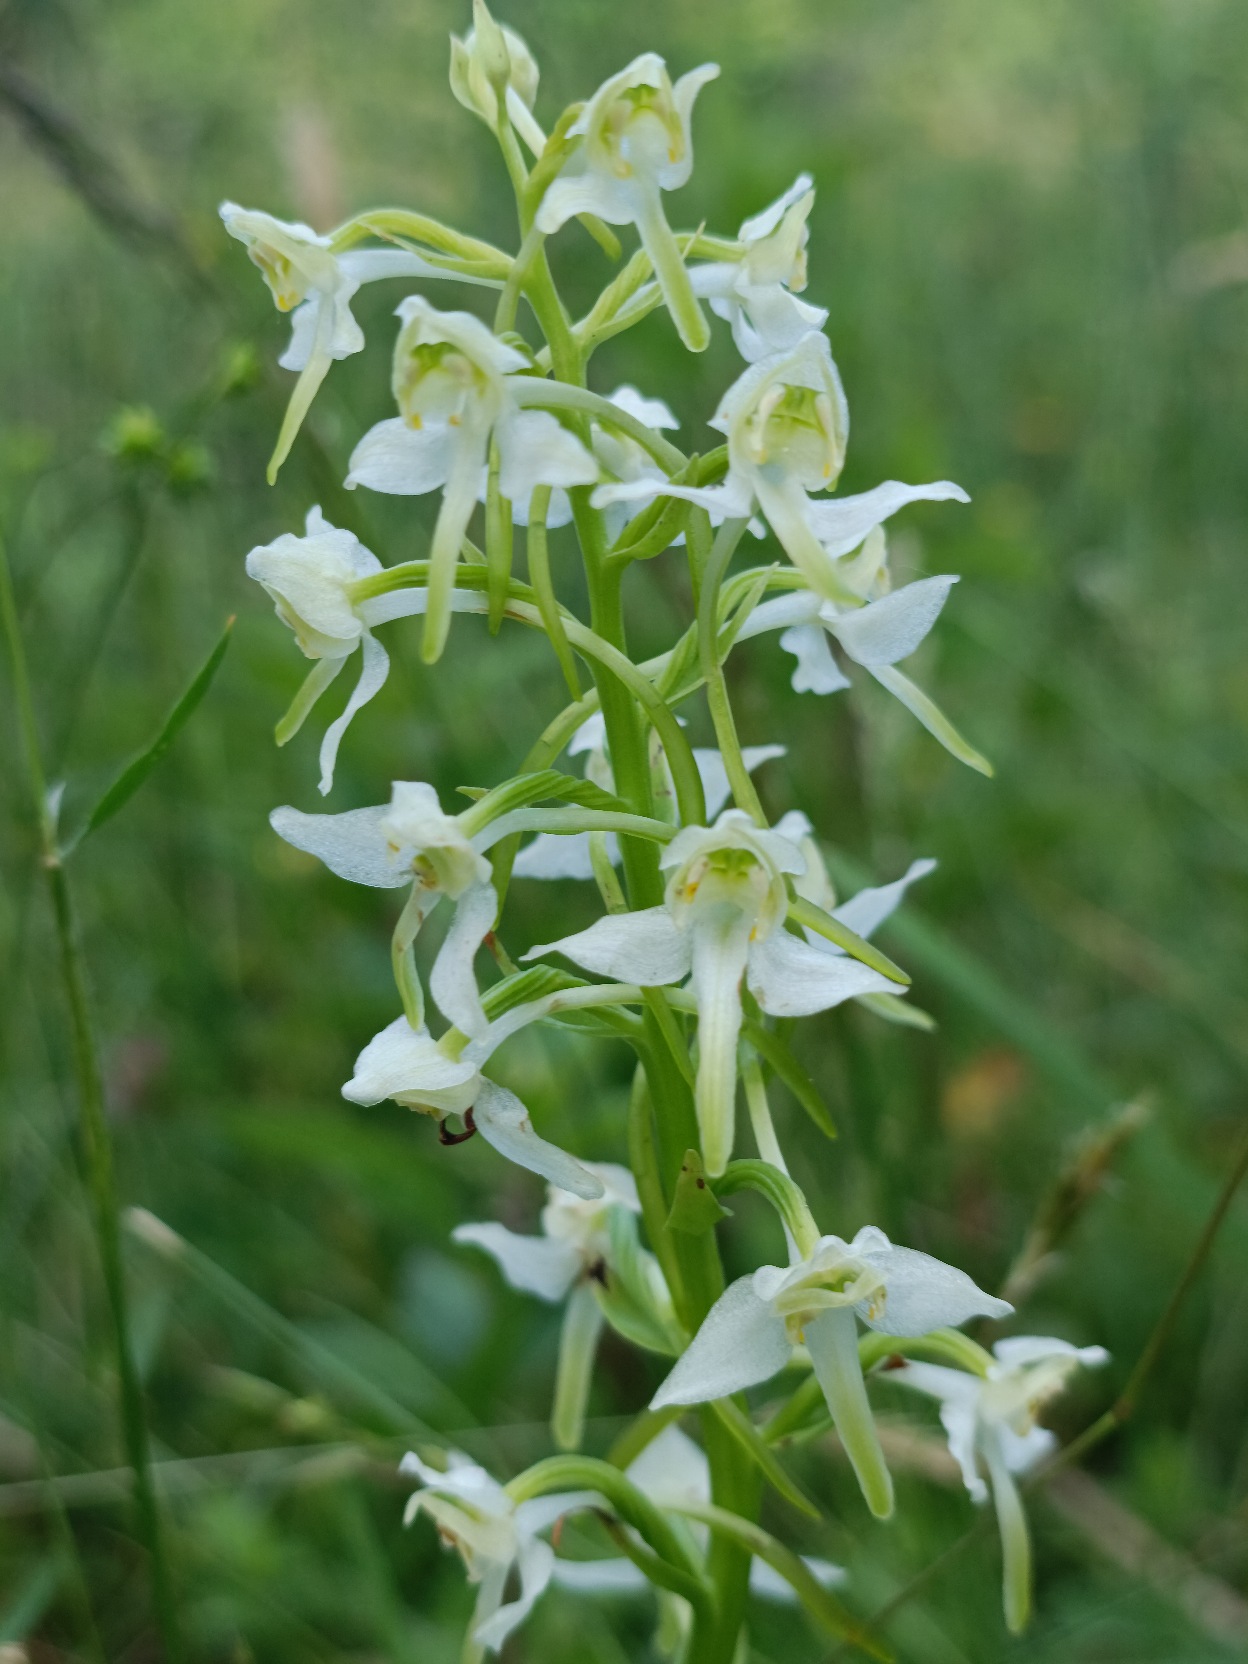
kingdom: Plantae
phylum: Tracheophyta
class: Liliopsida
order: Asparagales
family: Orchidaceae
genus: Platanthera
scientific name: Platanthera chlorantha
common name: Skov-gøgelilje
